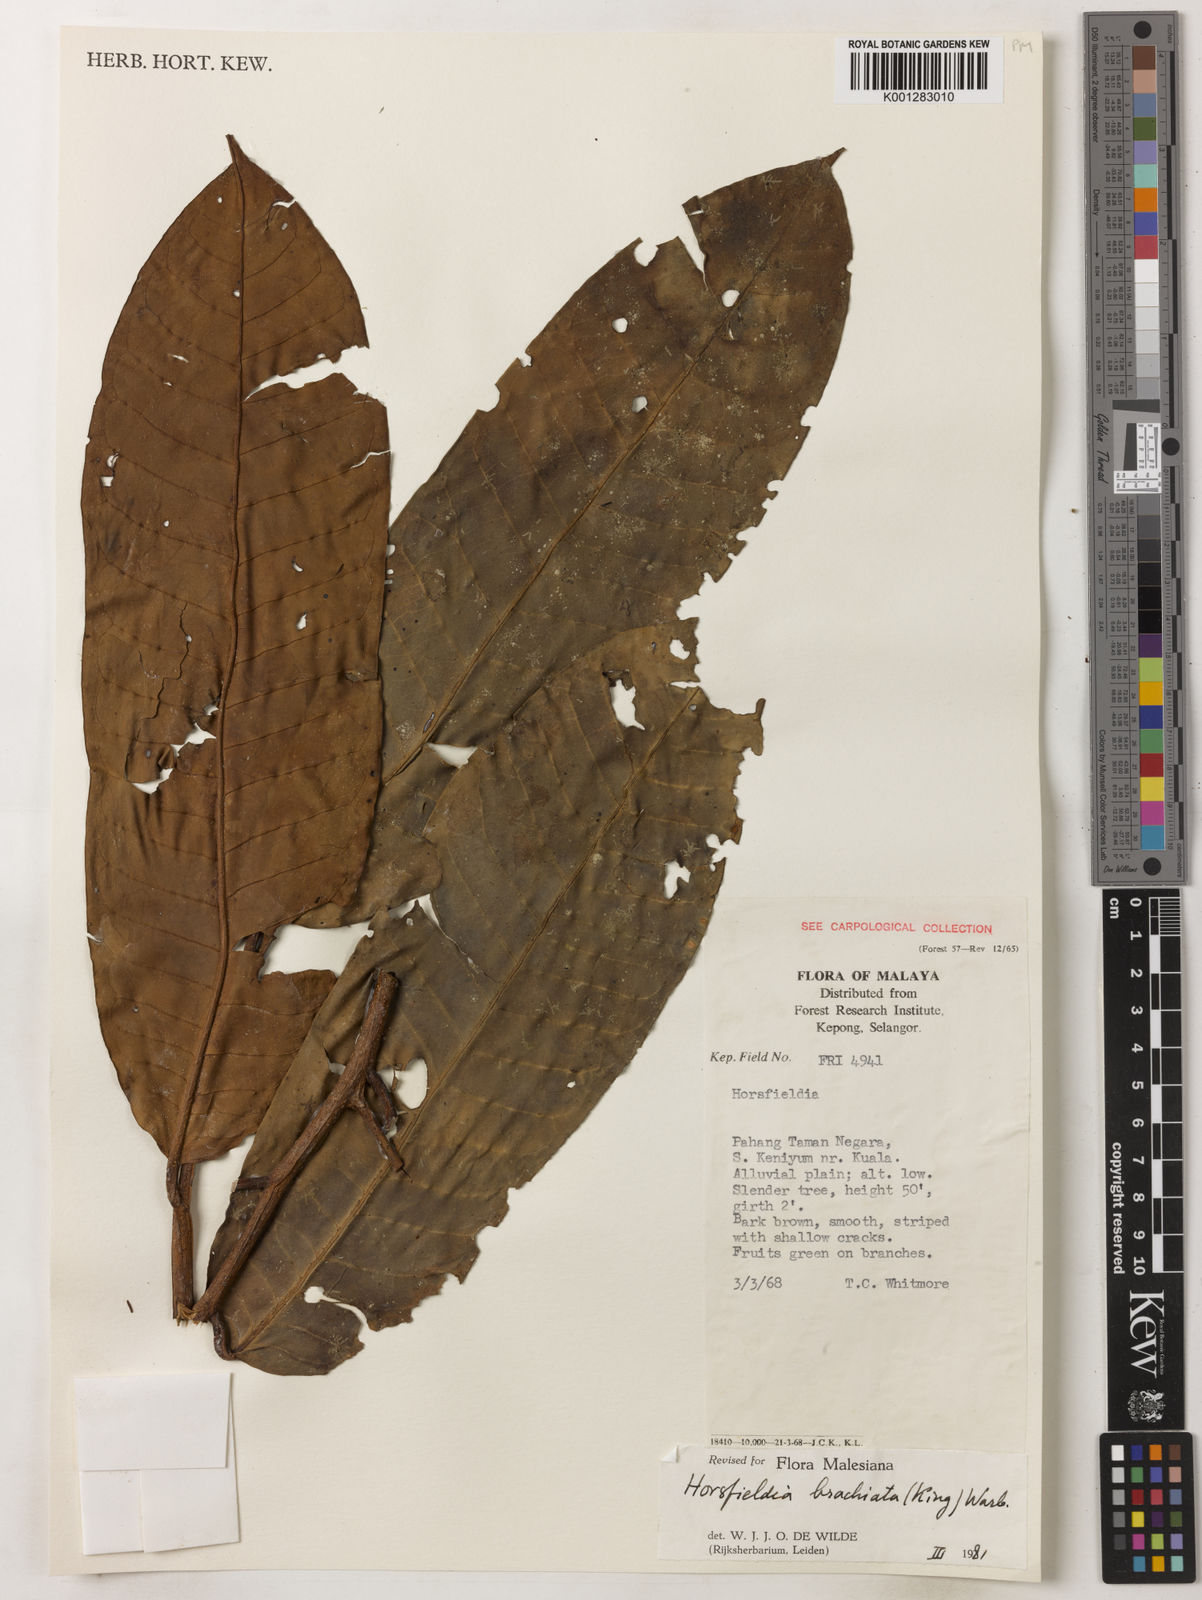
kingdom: Plantae
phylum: Tracheophyta
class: Magnoliopsida
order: Magnoliales
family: Myristicaceae
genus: Horsfieldia
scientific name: Horsfieldia brachiata
